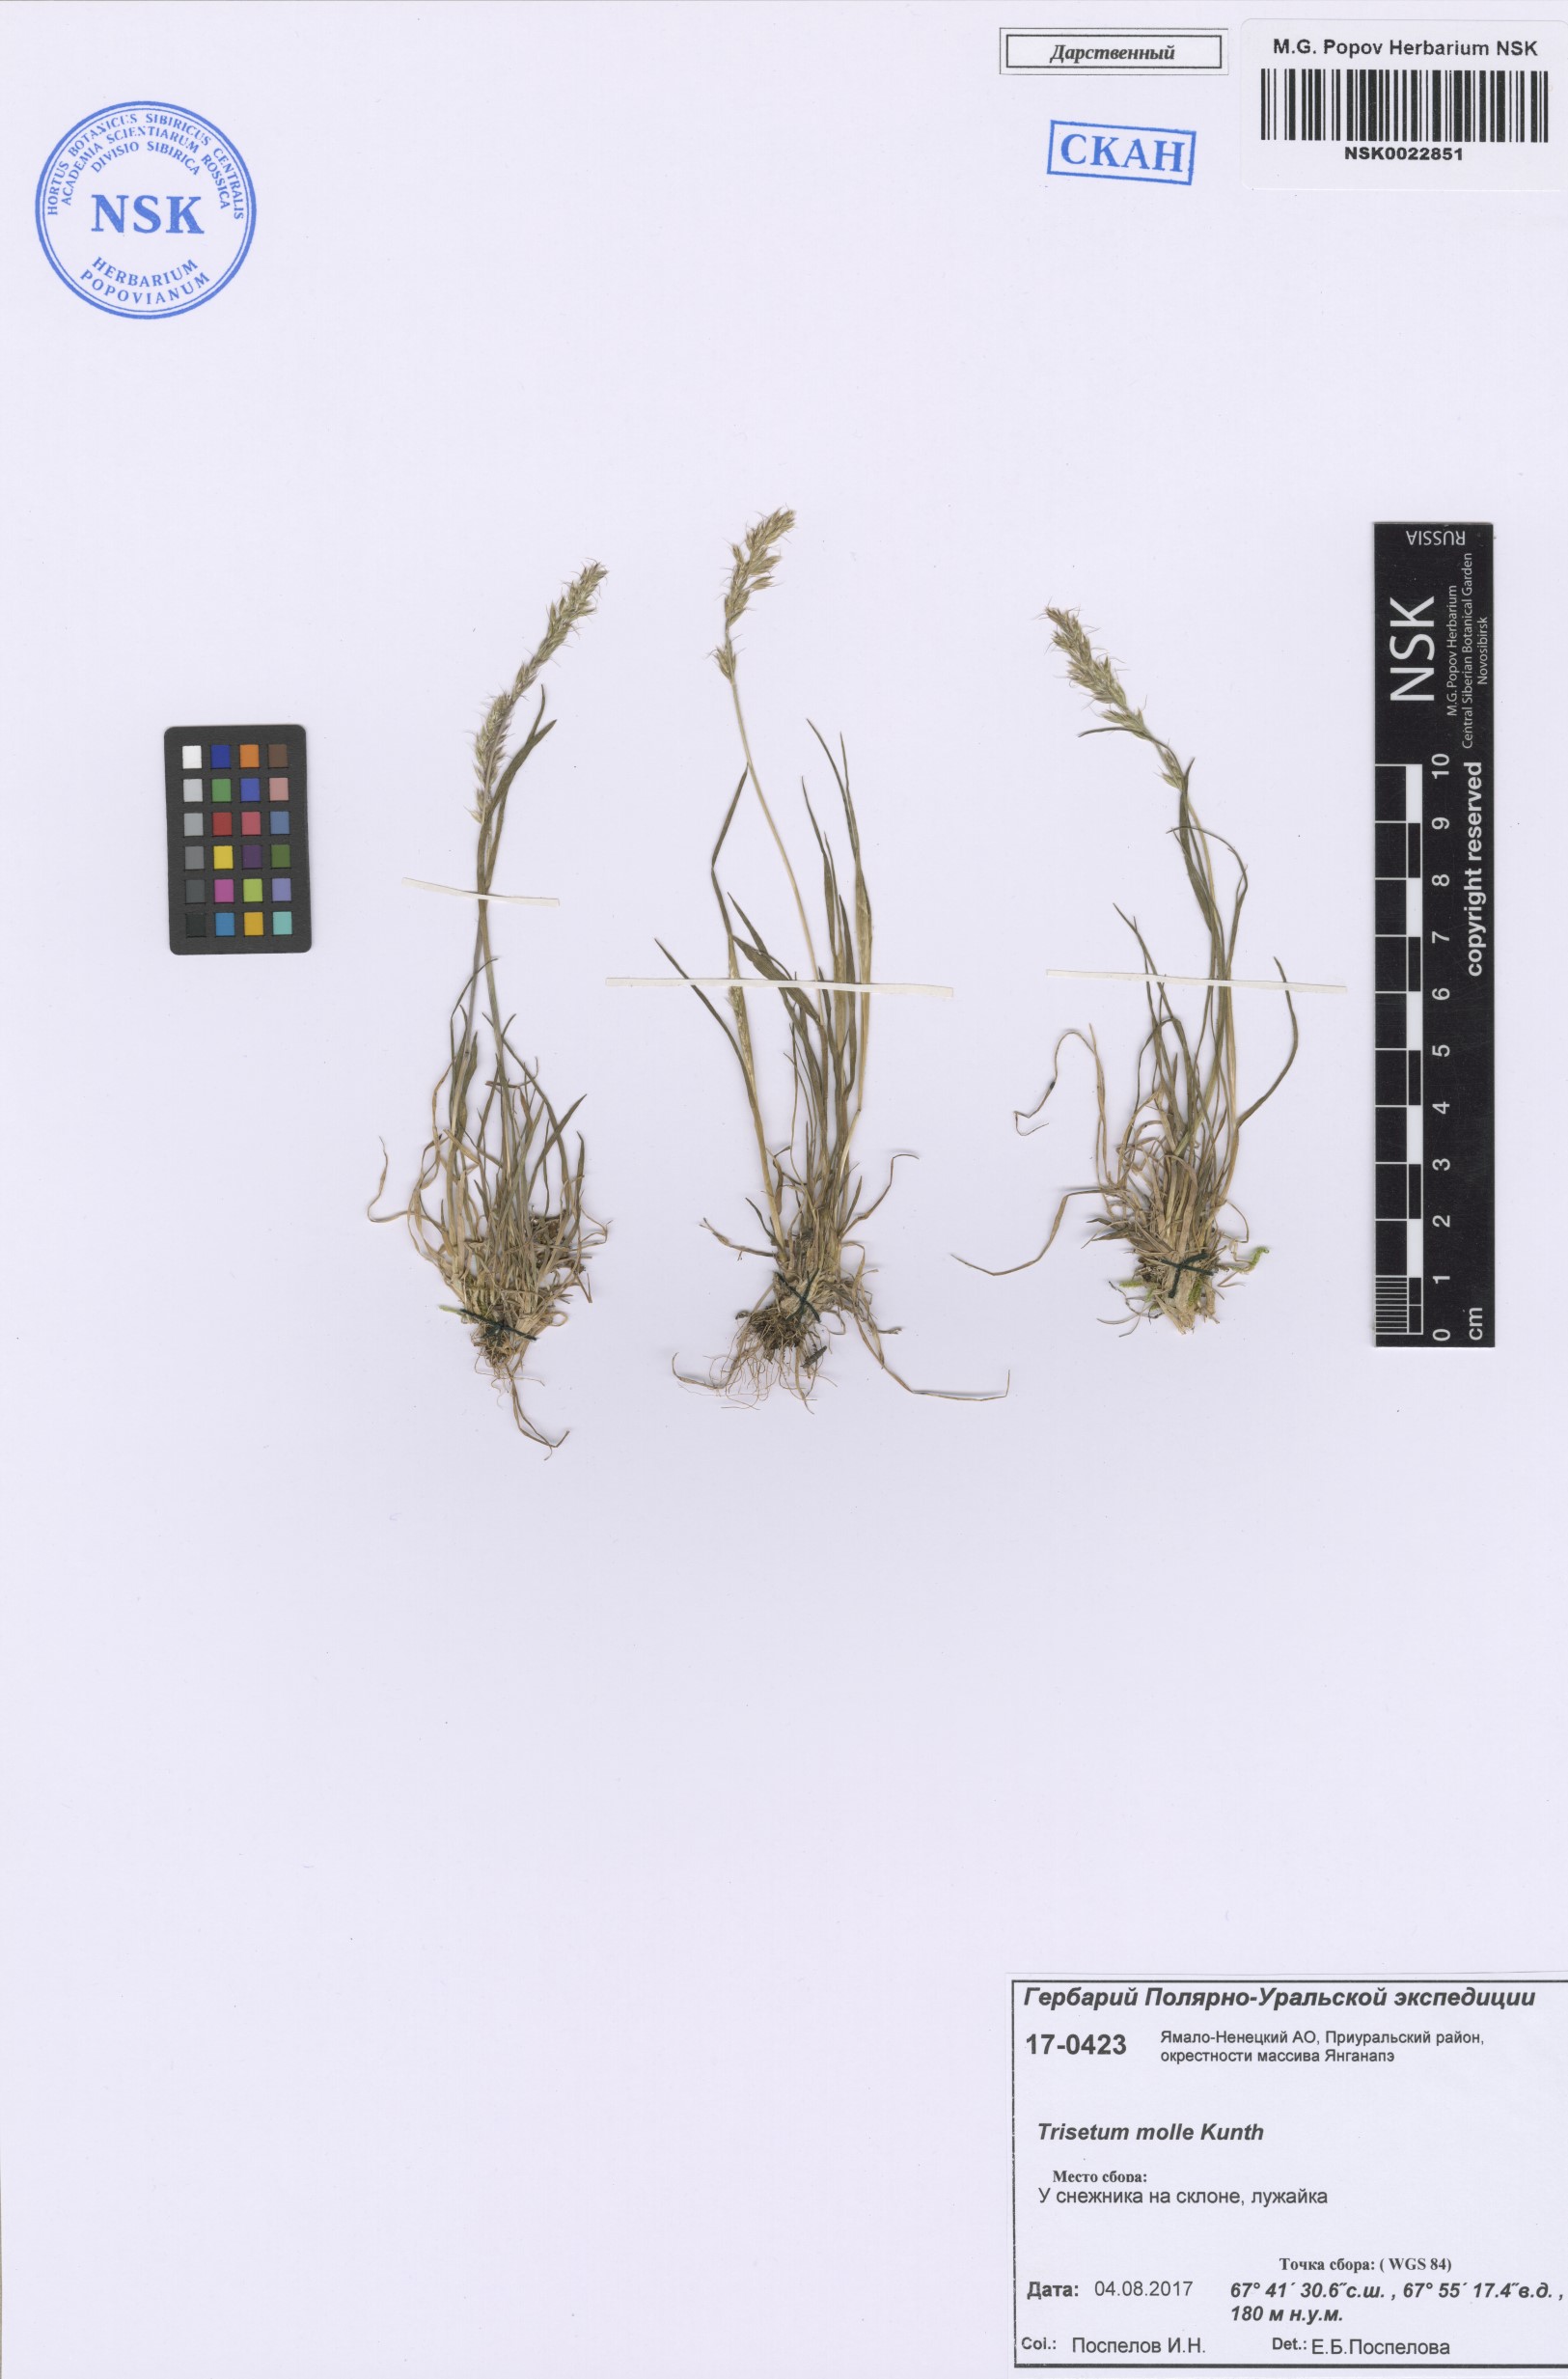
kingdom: Plantae
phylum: Tracheophyta
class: Liliopsida
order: Poales
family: Poaceae
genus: Koeleria
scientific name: Koeleria spicata
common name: Mountain trisetum
